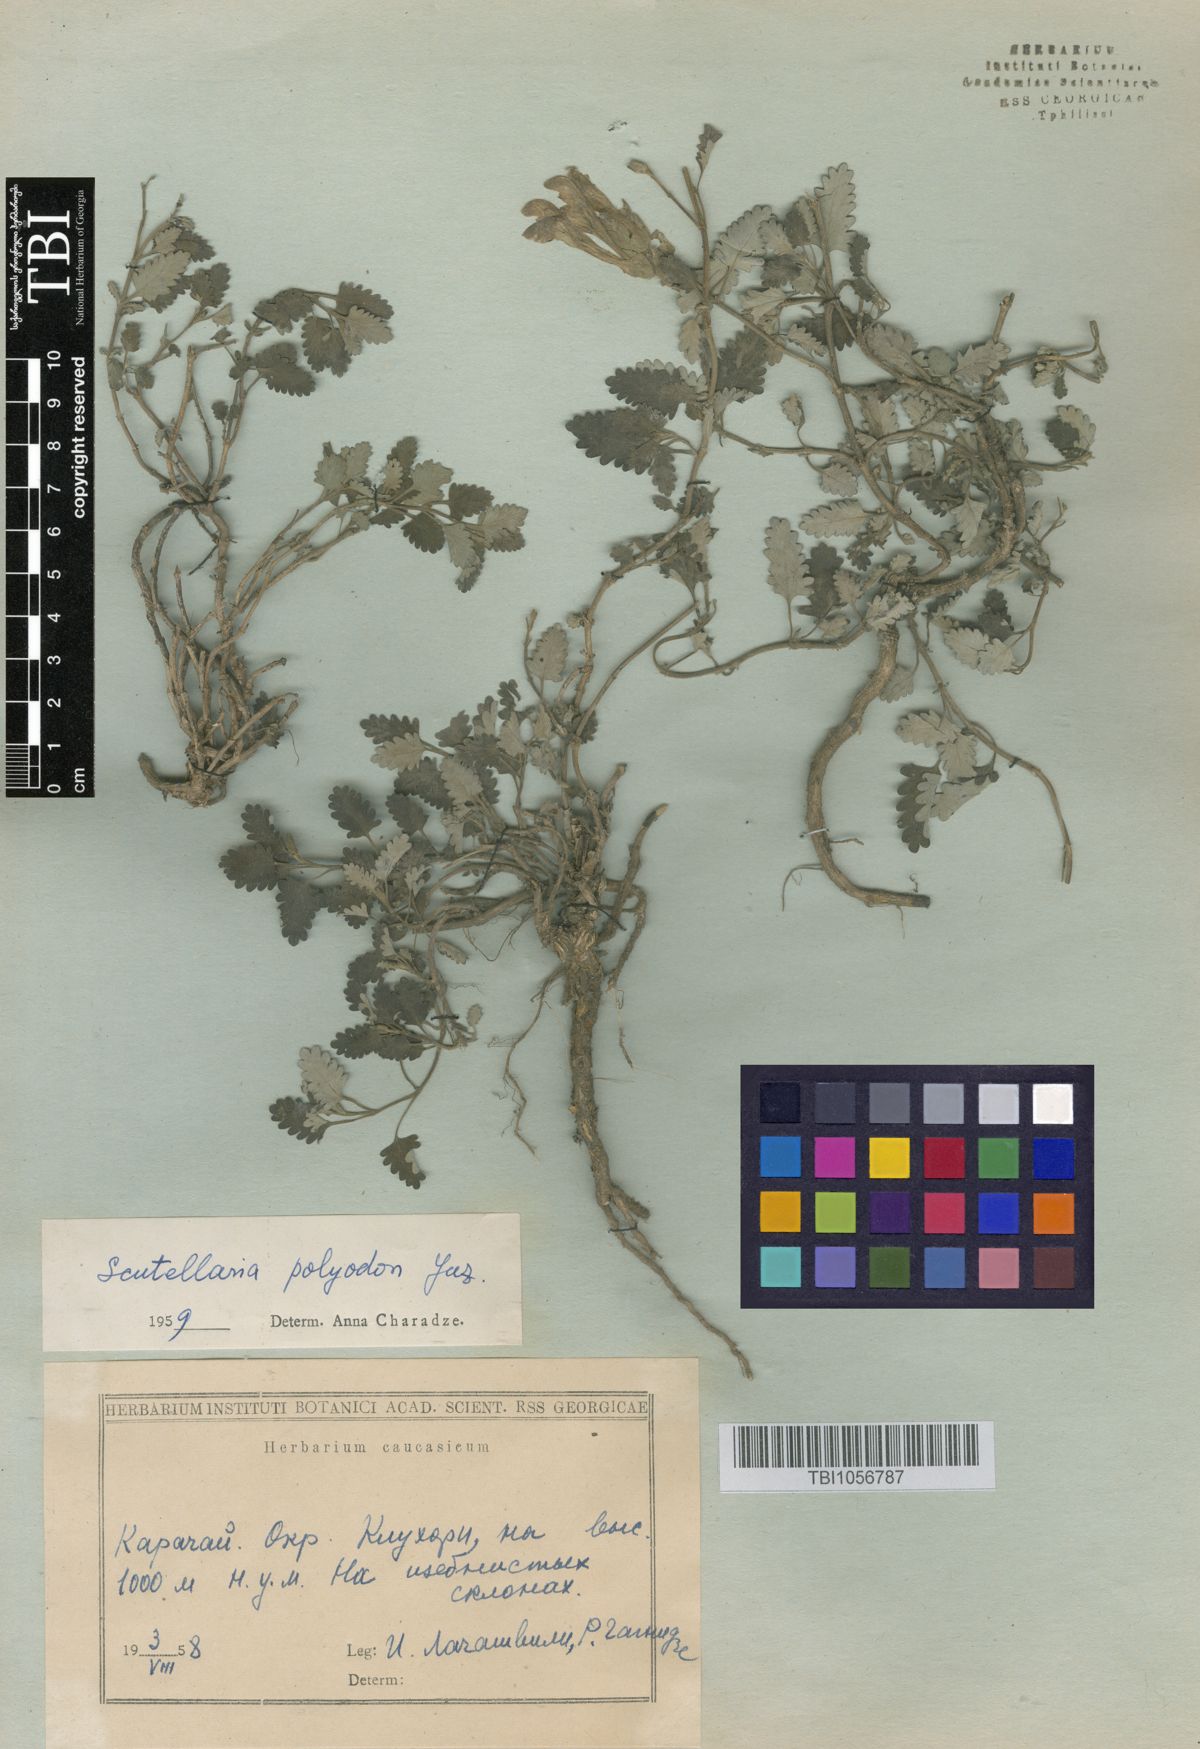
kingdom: Plantae
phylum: Tracheophyta
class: Magnoliopsida
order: Lamiales
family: Lamiaceae
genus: Scutellaria
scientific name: Scutellaria caucasica
